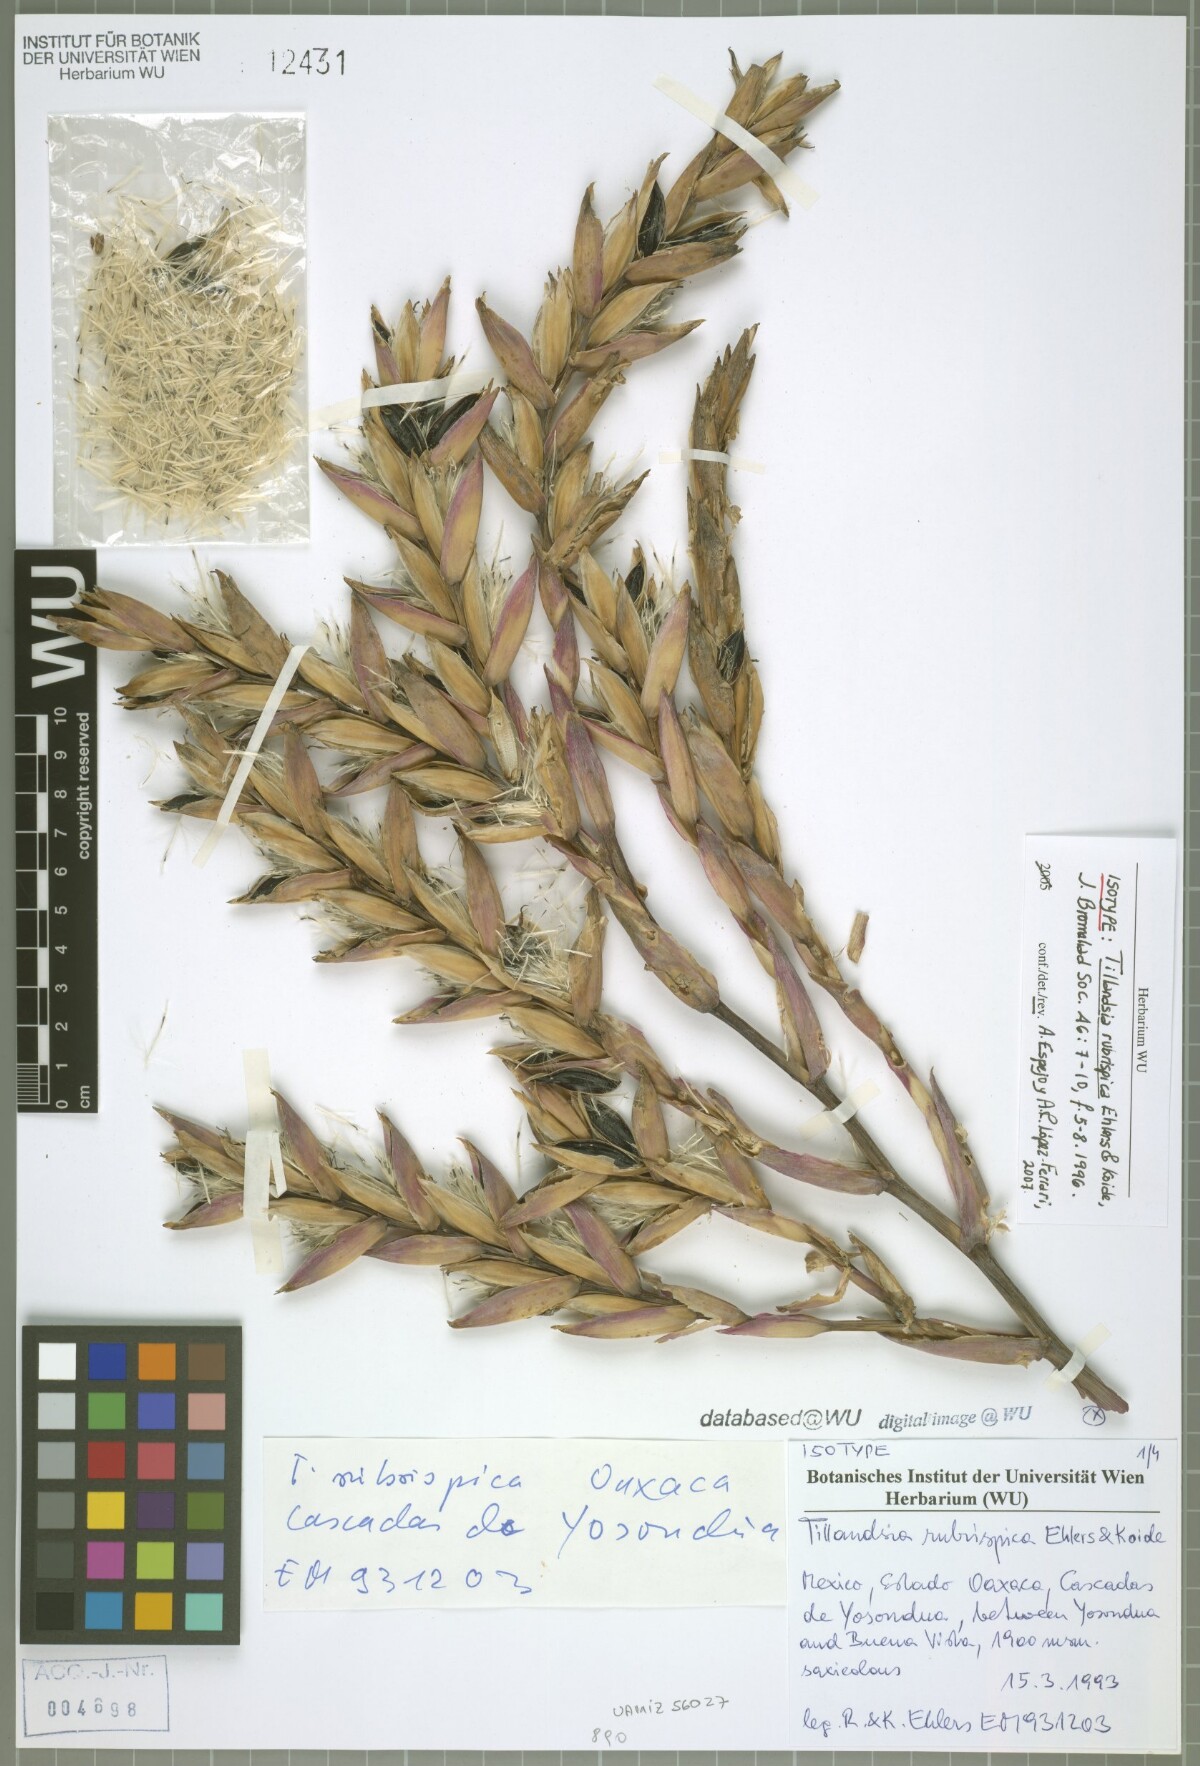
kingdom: Plantae
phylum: Tracheophyta
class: Liliopsida
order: Poales
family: Bromeliaceae
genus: Tillandsia
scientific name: Tillandsia rubrispica
